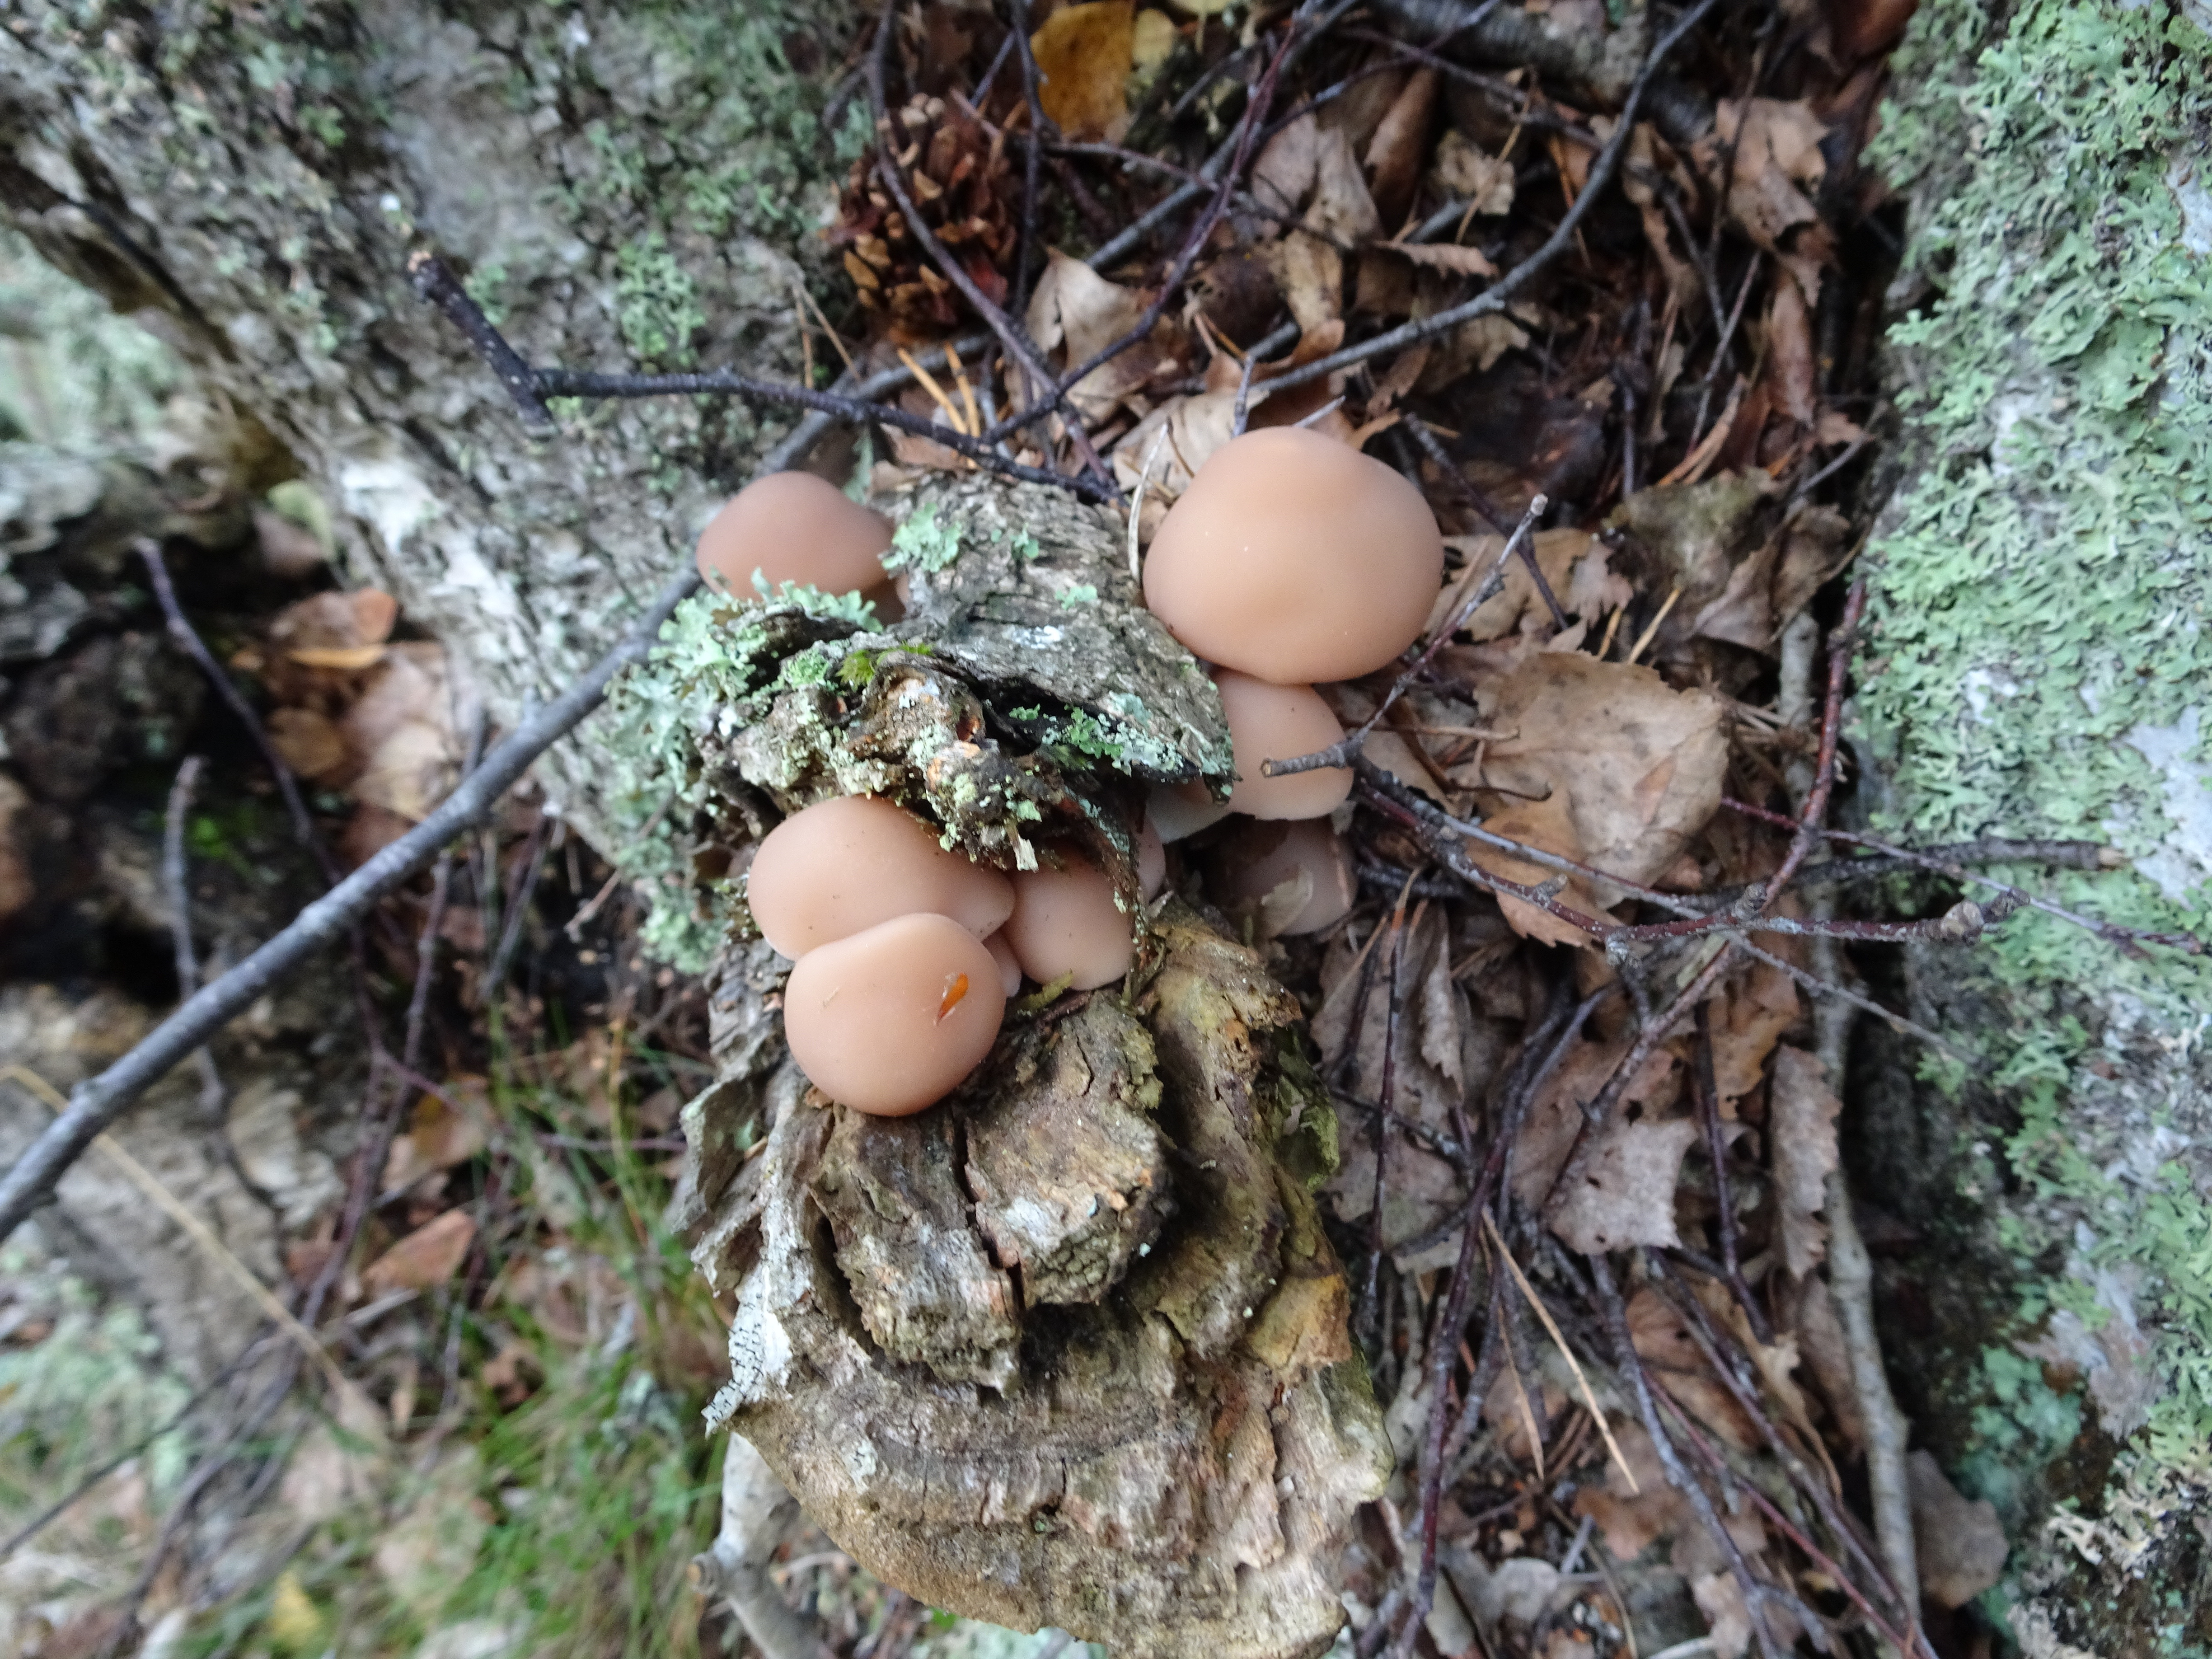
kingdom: Fungi
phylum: Basidiomycota
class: Agaricomycetes
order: Agaricales
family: Psathyrellaceae
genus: Homophron
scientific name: Homophron spadiceum
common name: Chestnut brittlestem
